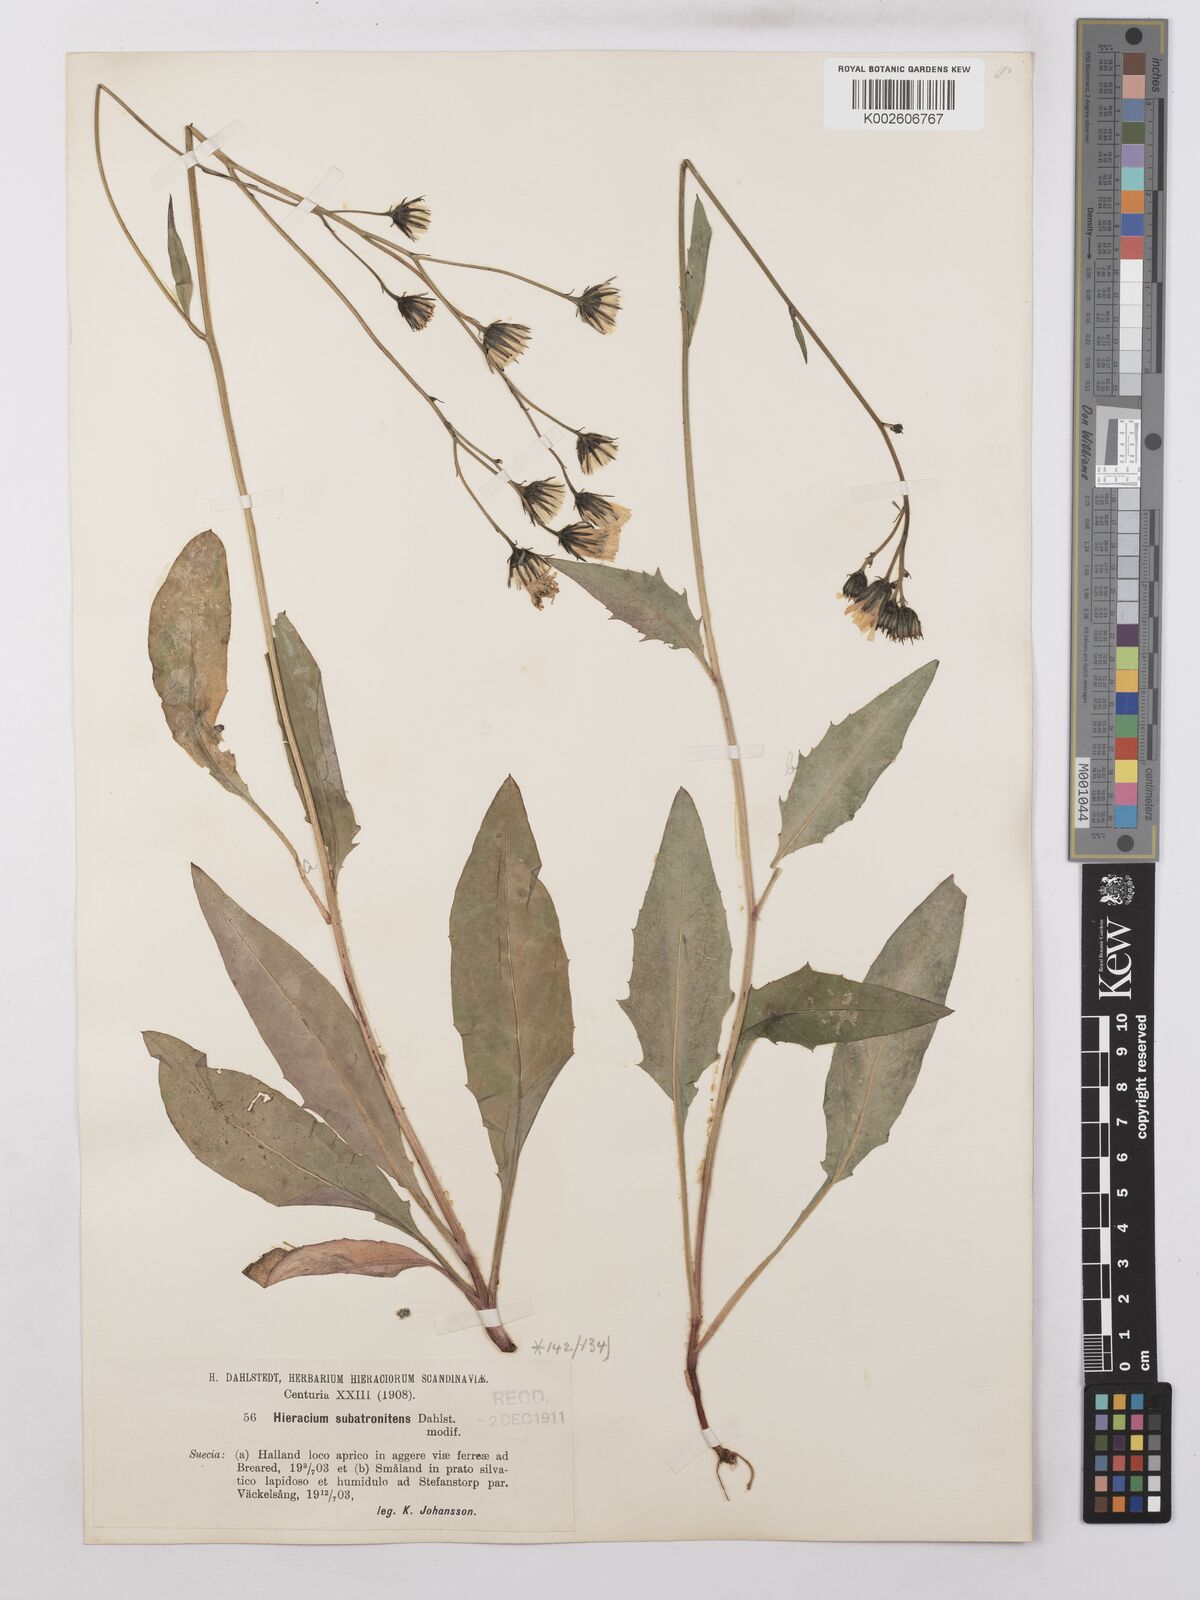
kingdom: Plantae
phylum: Tracheophyta
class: Magnoliopsida
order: Asterales
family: Asteraceae
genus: Hieracium
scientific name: Hieracium lachenalii
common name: Common hawkweed
